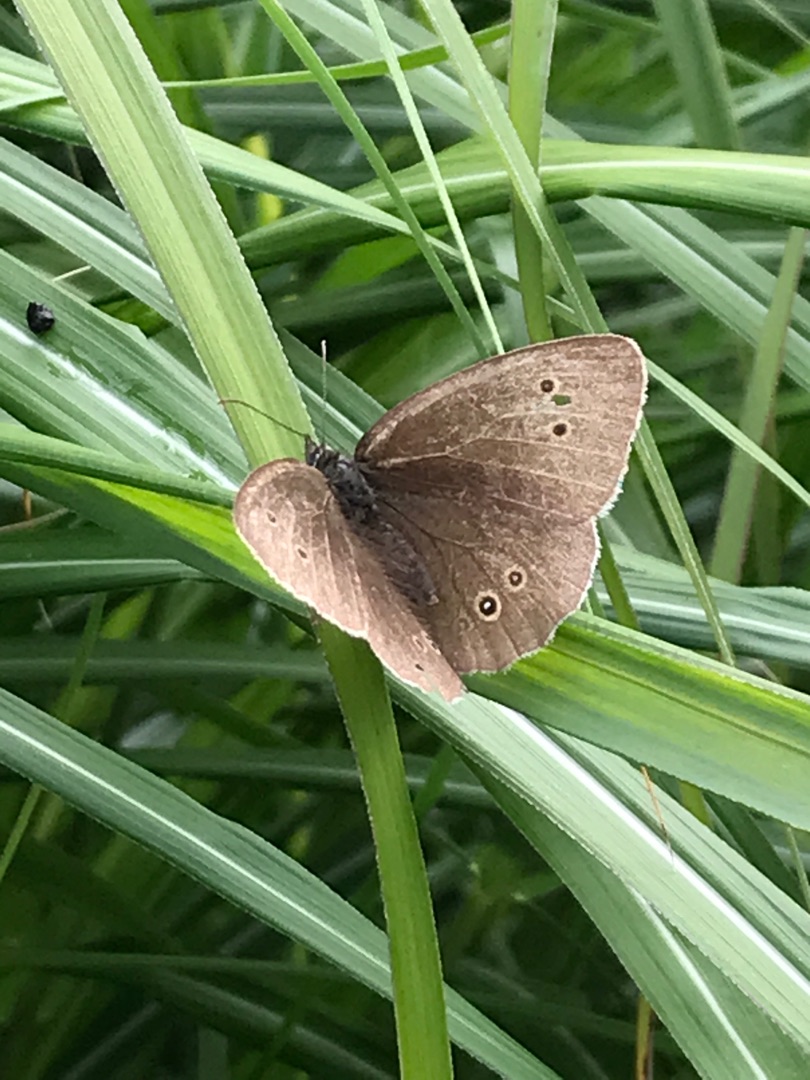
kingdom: Animalia
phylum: Arthropoda
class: Insecta
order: Lepidoptera
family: Nymphalidae
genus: Aphantopus
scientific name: Aphantopus hyperantus
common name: Engrandøje
